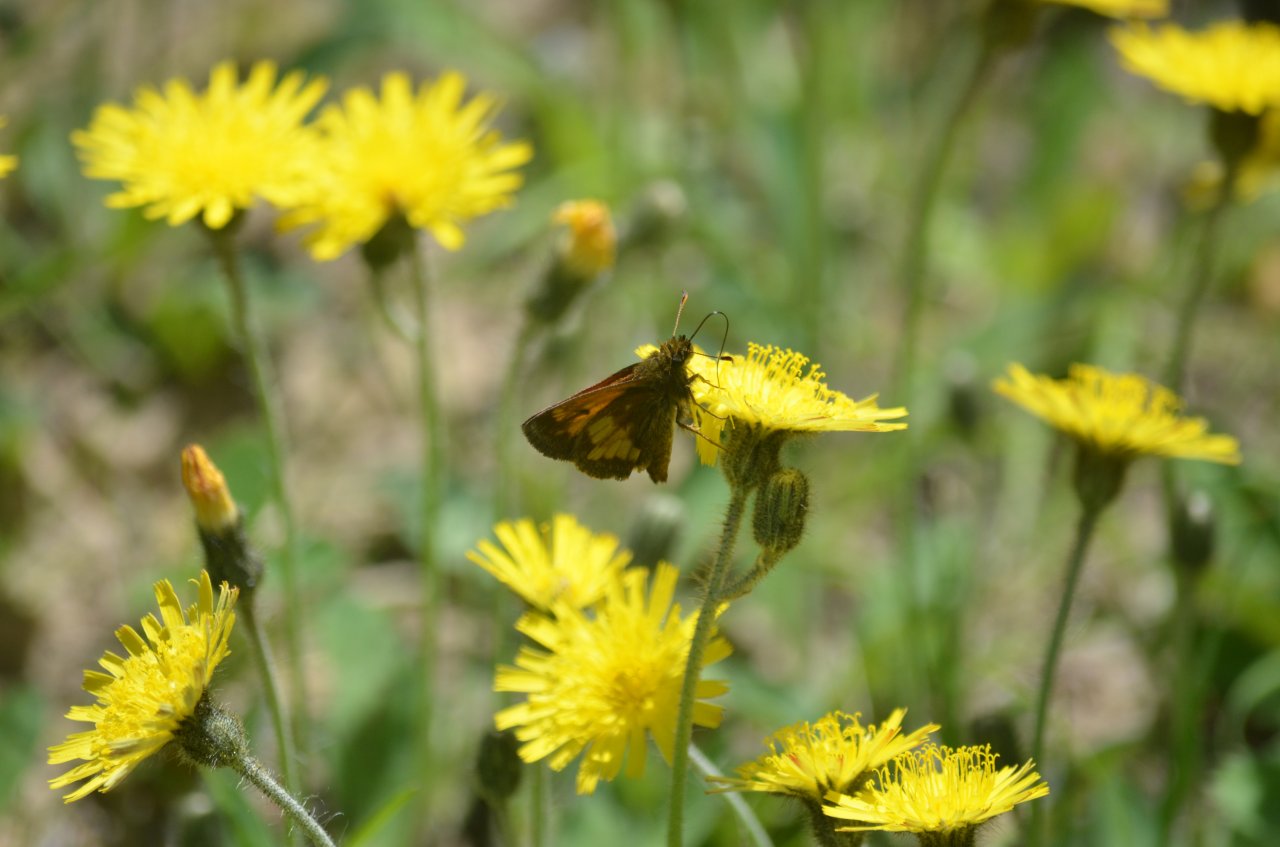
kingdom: Animalia
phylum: Arthropoda
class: Insecta
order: Lepidoptera
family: Hesperiidae
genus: Lon
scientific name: Lon hobomok
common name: Hobomok Skipper
